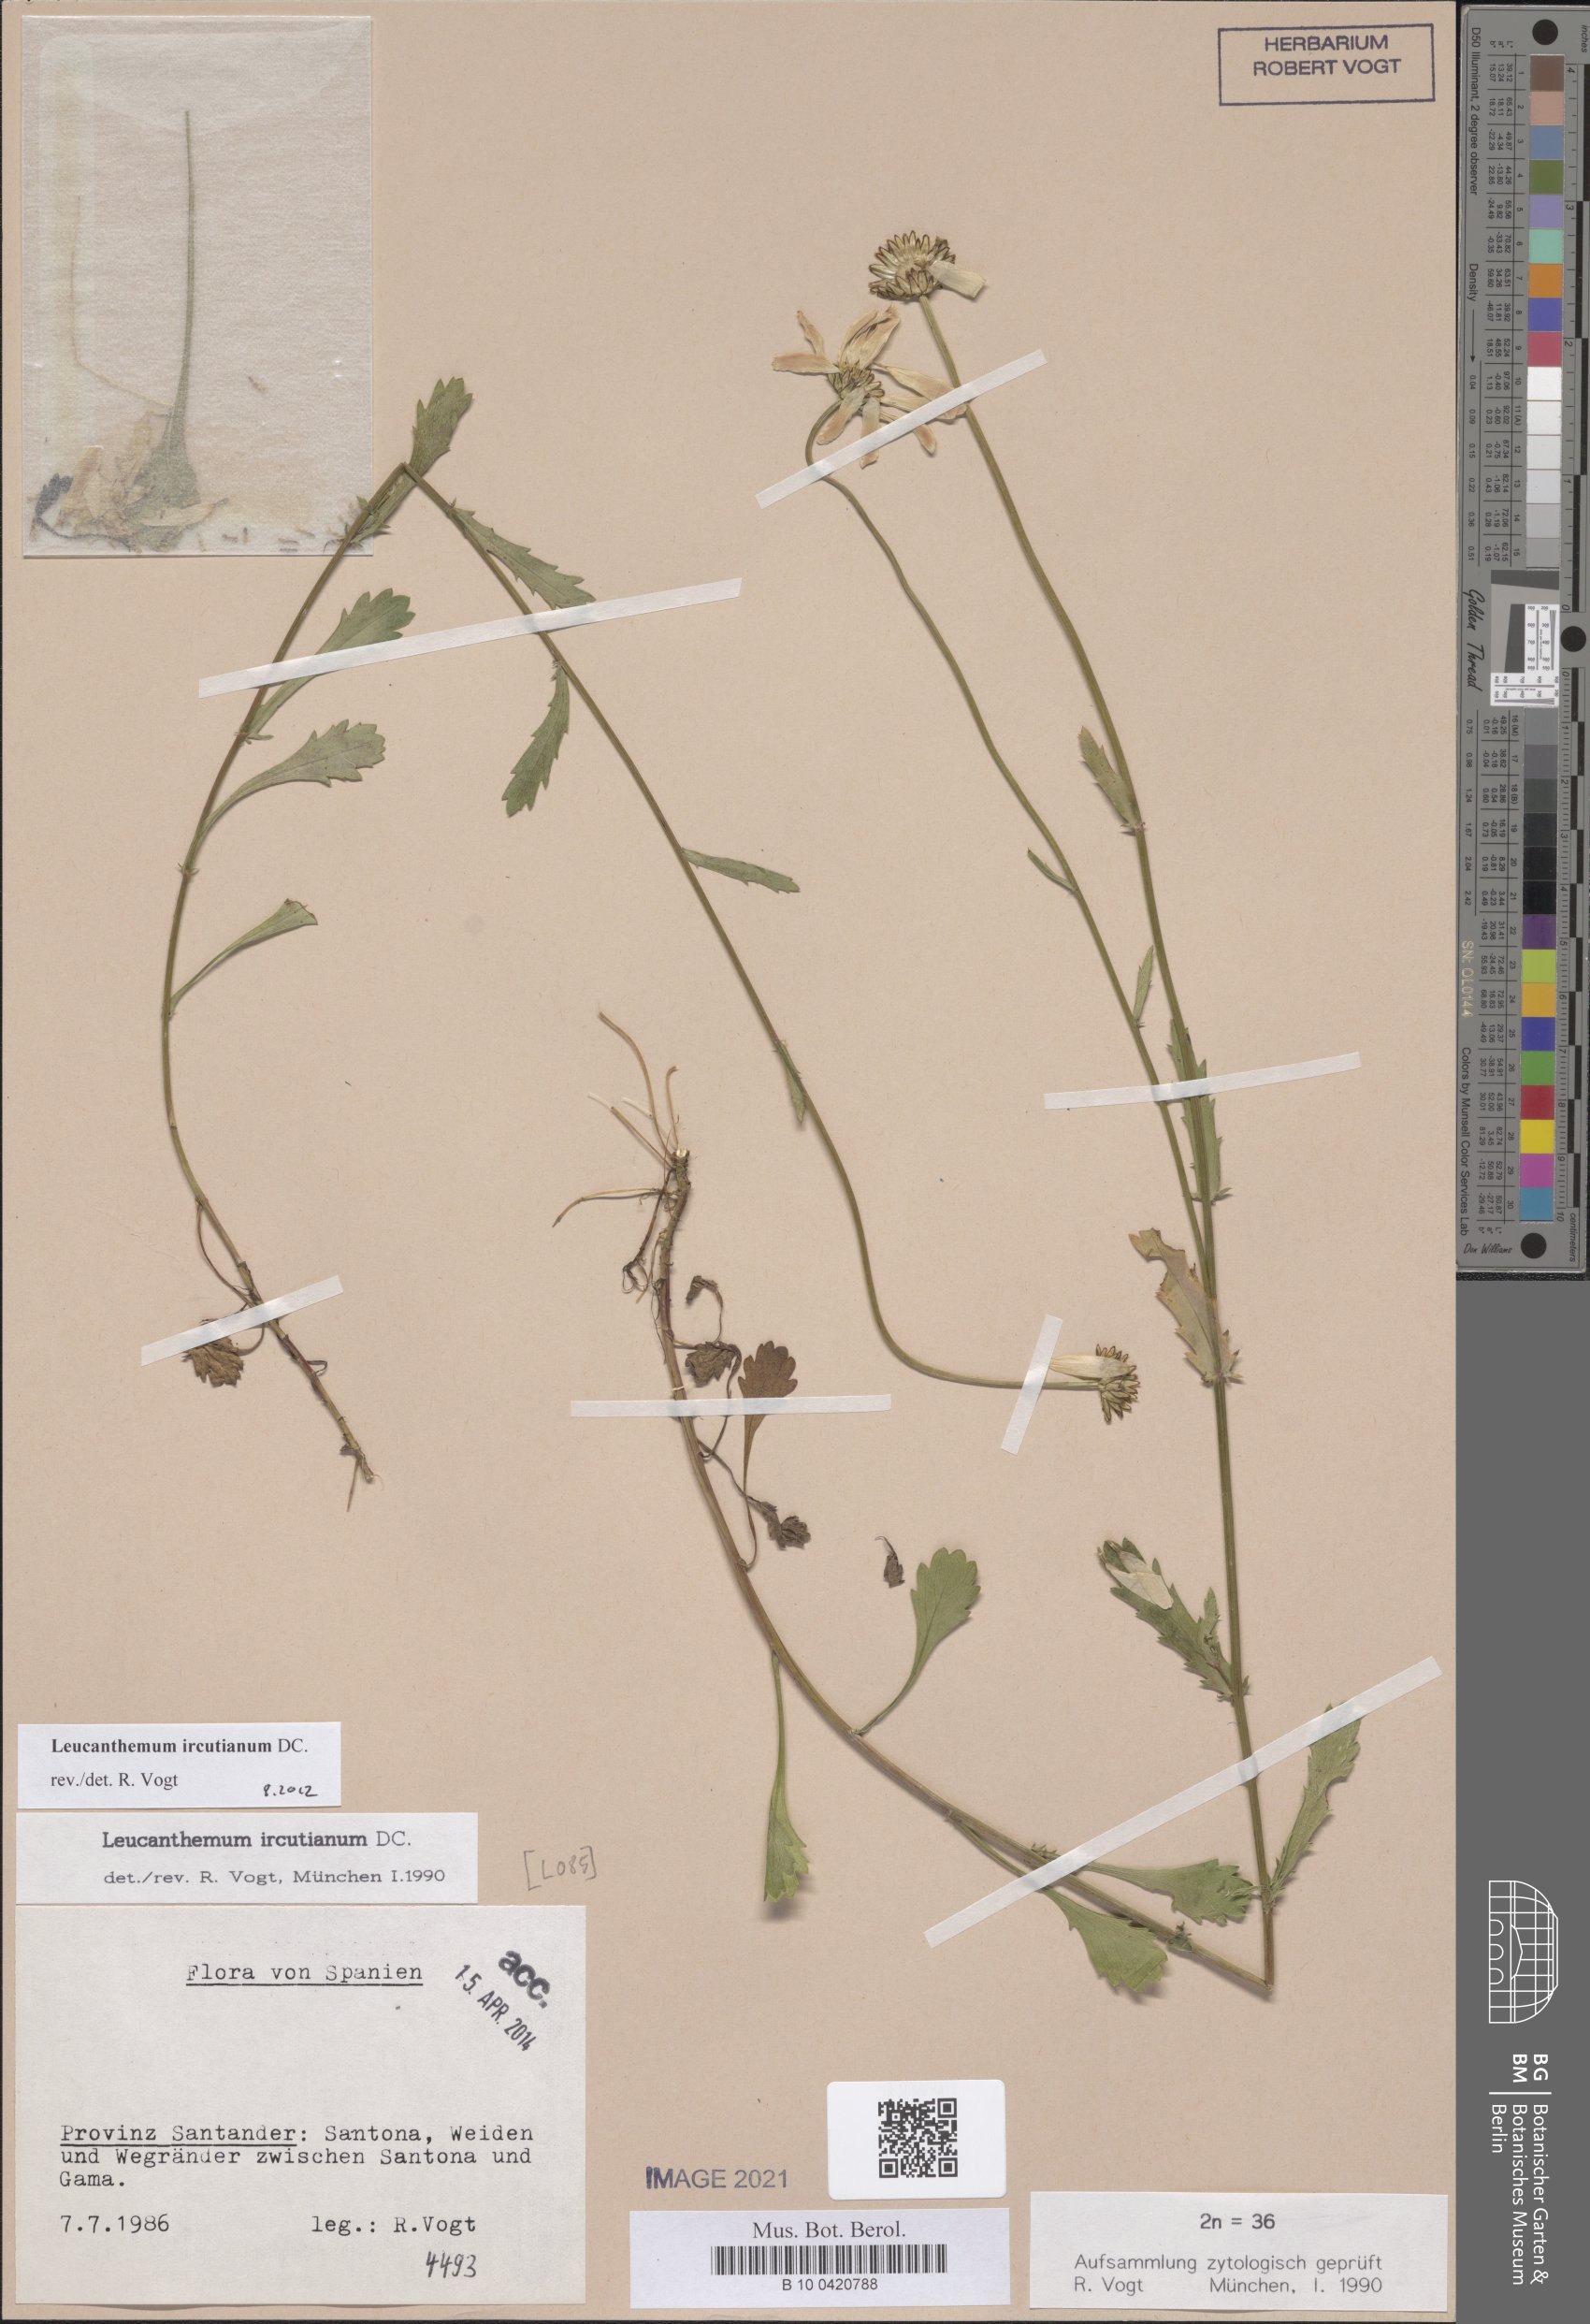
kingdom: Plantae
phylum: Tracheophyta
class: Magnoliopsida
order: Asterales
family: Asteraceae
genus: Leucanthemum
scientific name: Leucanthemum ircutianum
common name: Daisy
